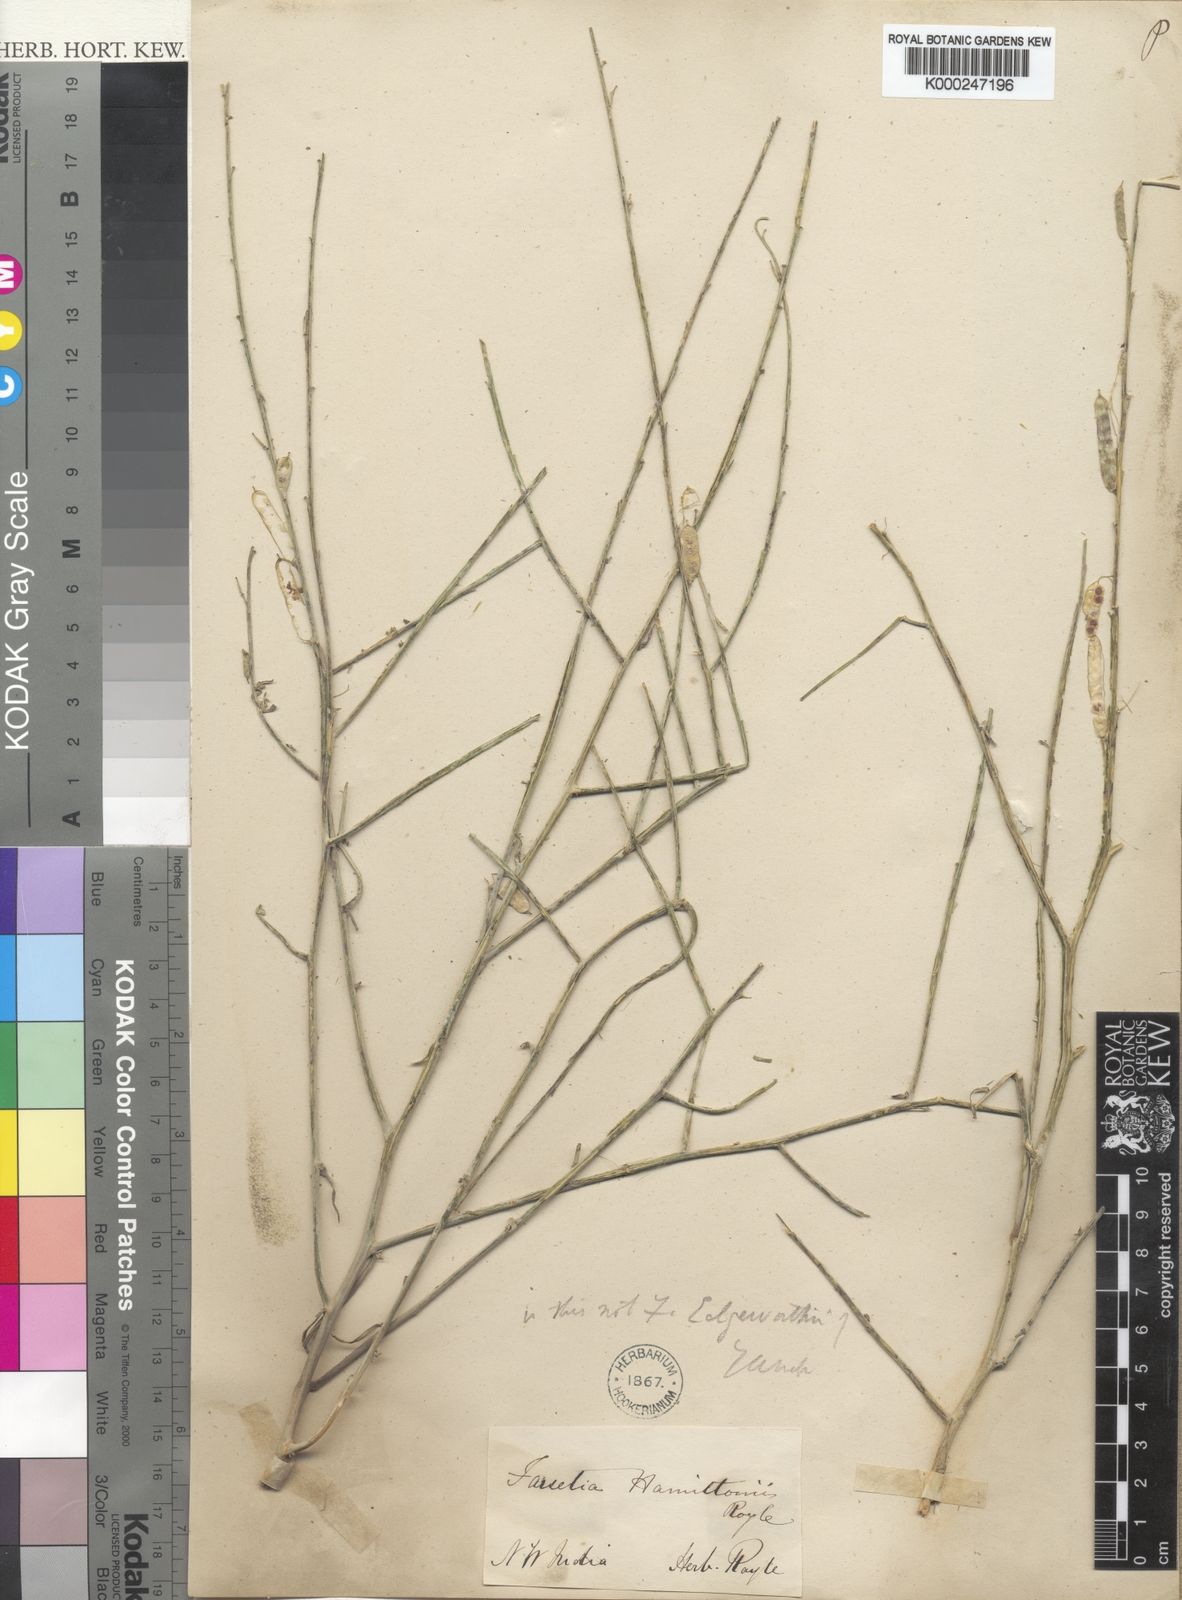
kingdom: Plantae
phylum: Tracheophyta
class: Magnoliopsida
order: Brassicales
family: Brassicaceae
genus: Farsetia
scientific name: Farsetia stylosa
